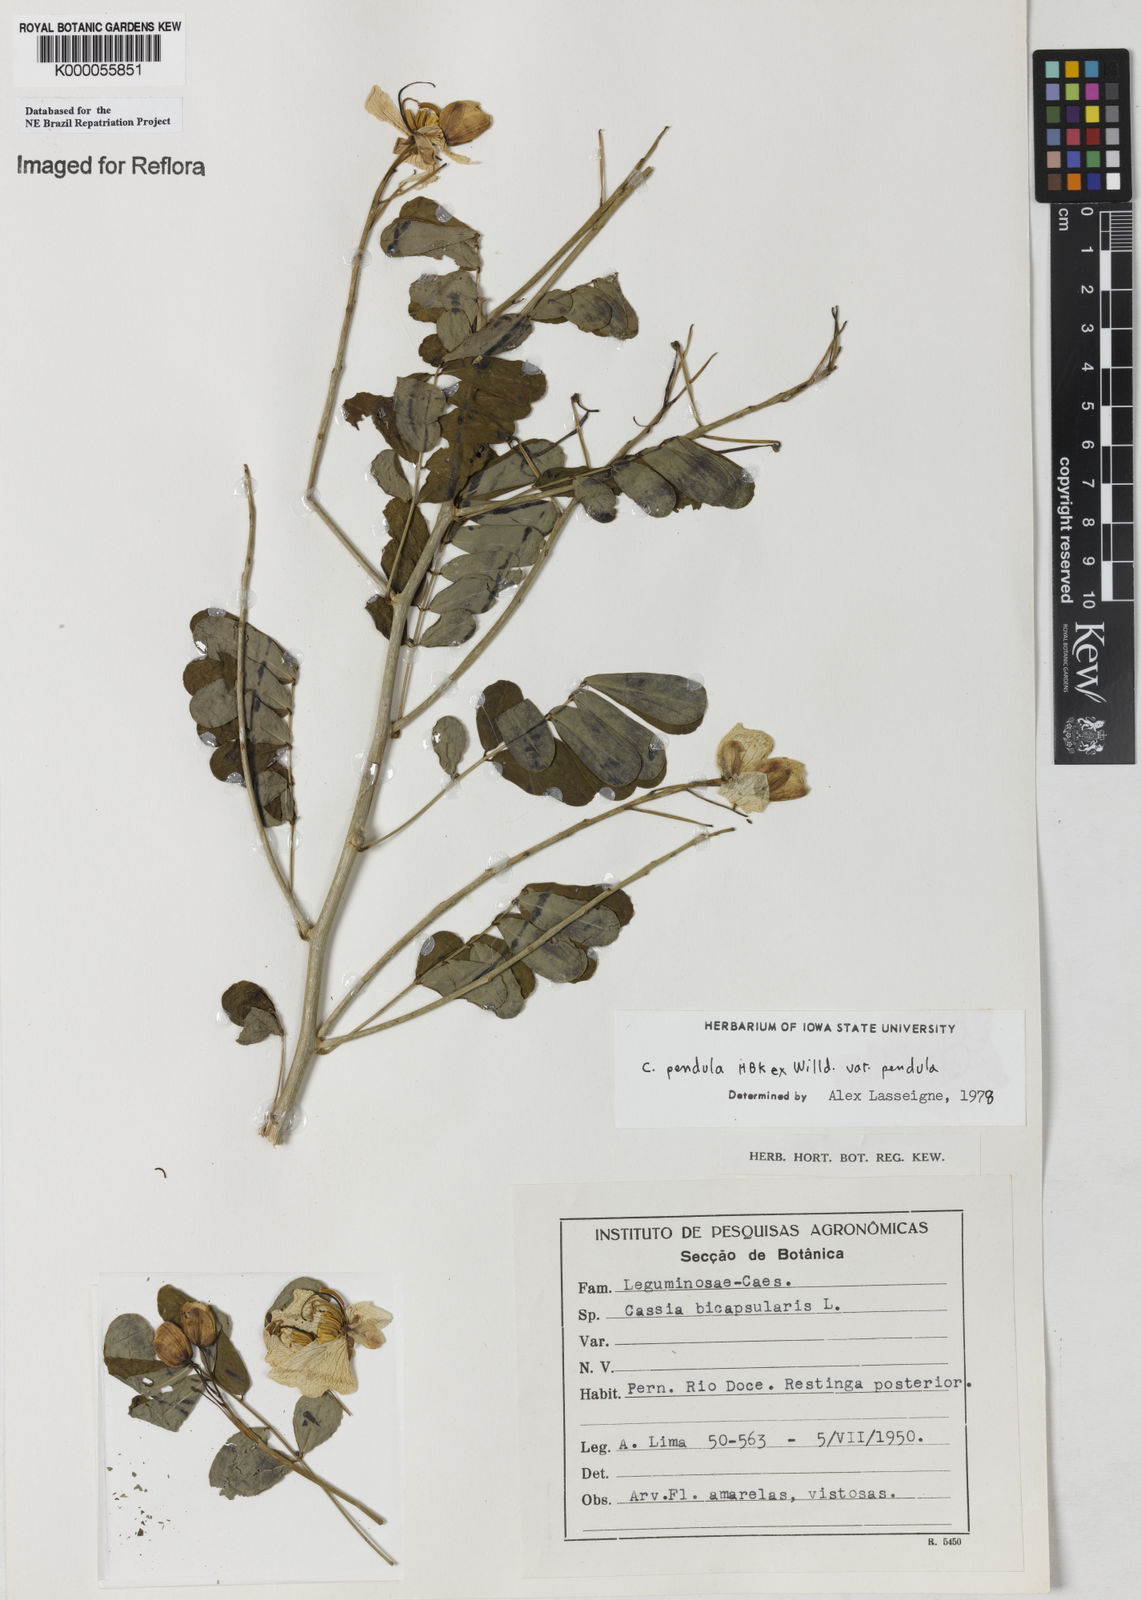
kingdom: Plantae
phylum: Tracheophyta
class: Magnoliopsida
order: Fabales
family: Fabaceae
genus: Senna
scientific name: Senna pendula
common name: Easter cassia
